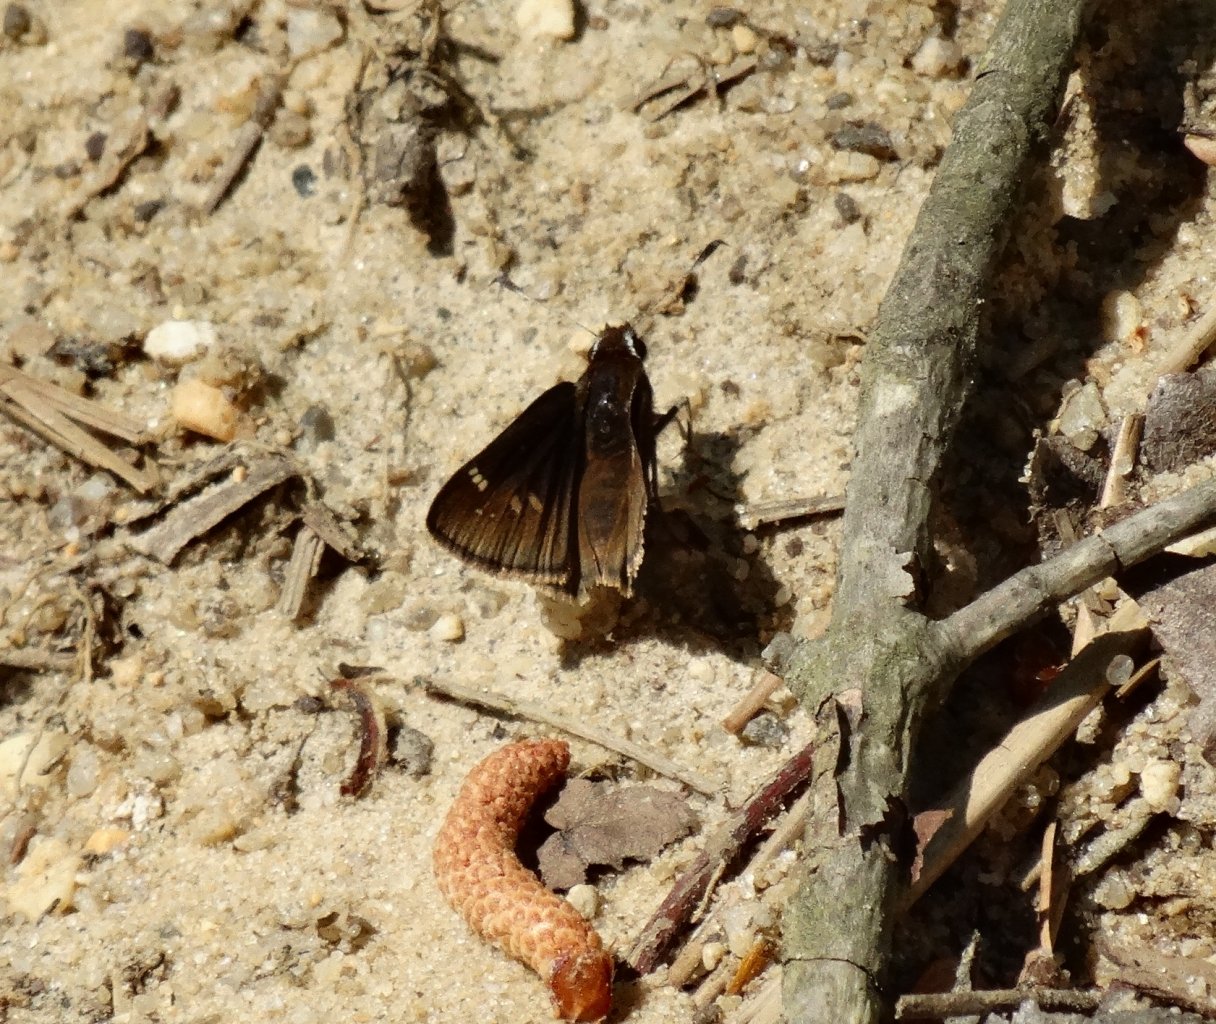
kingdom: Animalia
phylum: Arthropoda
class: Insecta
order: Lepidoptera
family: Hesperiidae
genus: Atrytonopsis
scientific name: Atrytonopsis hianna
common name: Dusted Skipper
